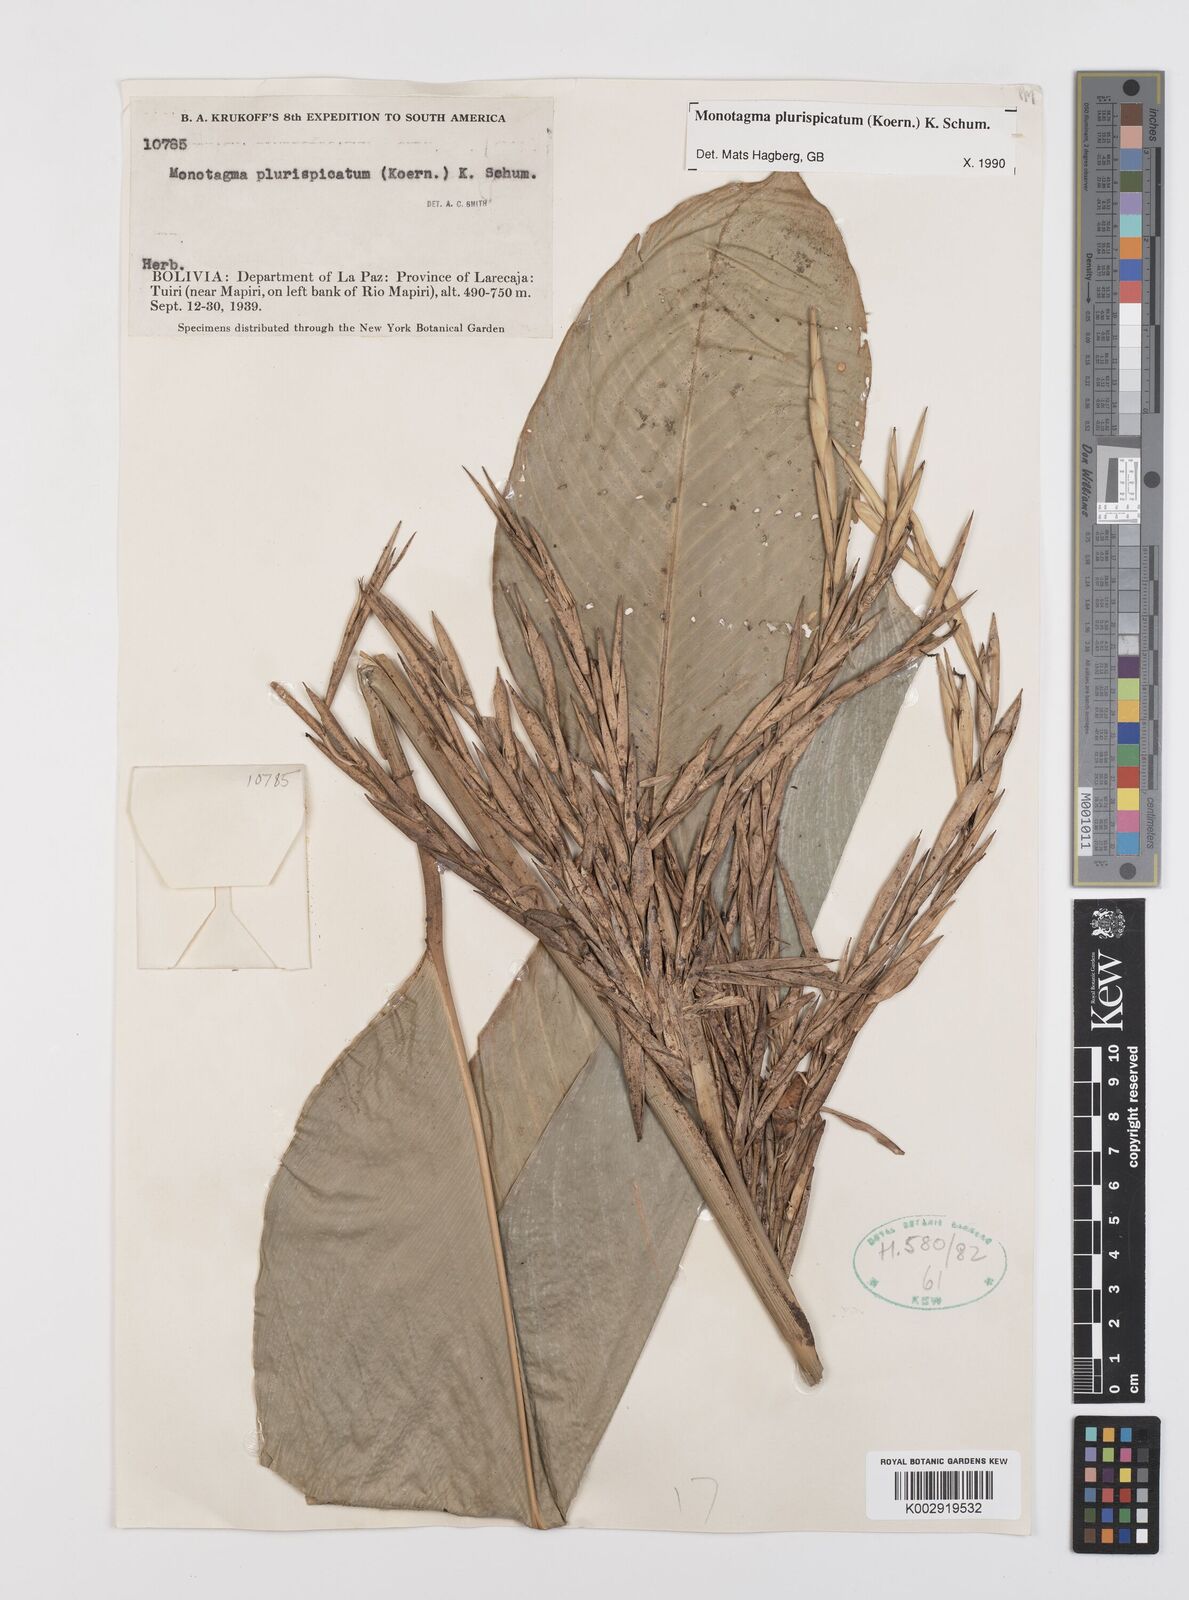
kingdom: Plantae
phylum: Tracheophyta
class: Liliopsida
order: Zingiberales
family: Marantaceae
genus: Monotagma
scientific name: Monotagma plurispicatum
